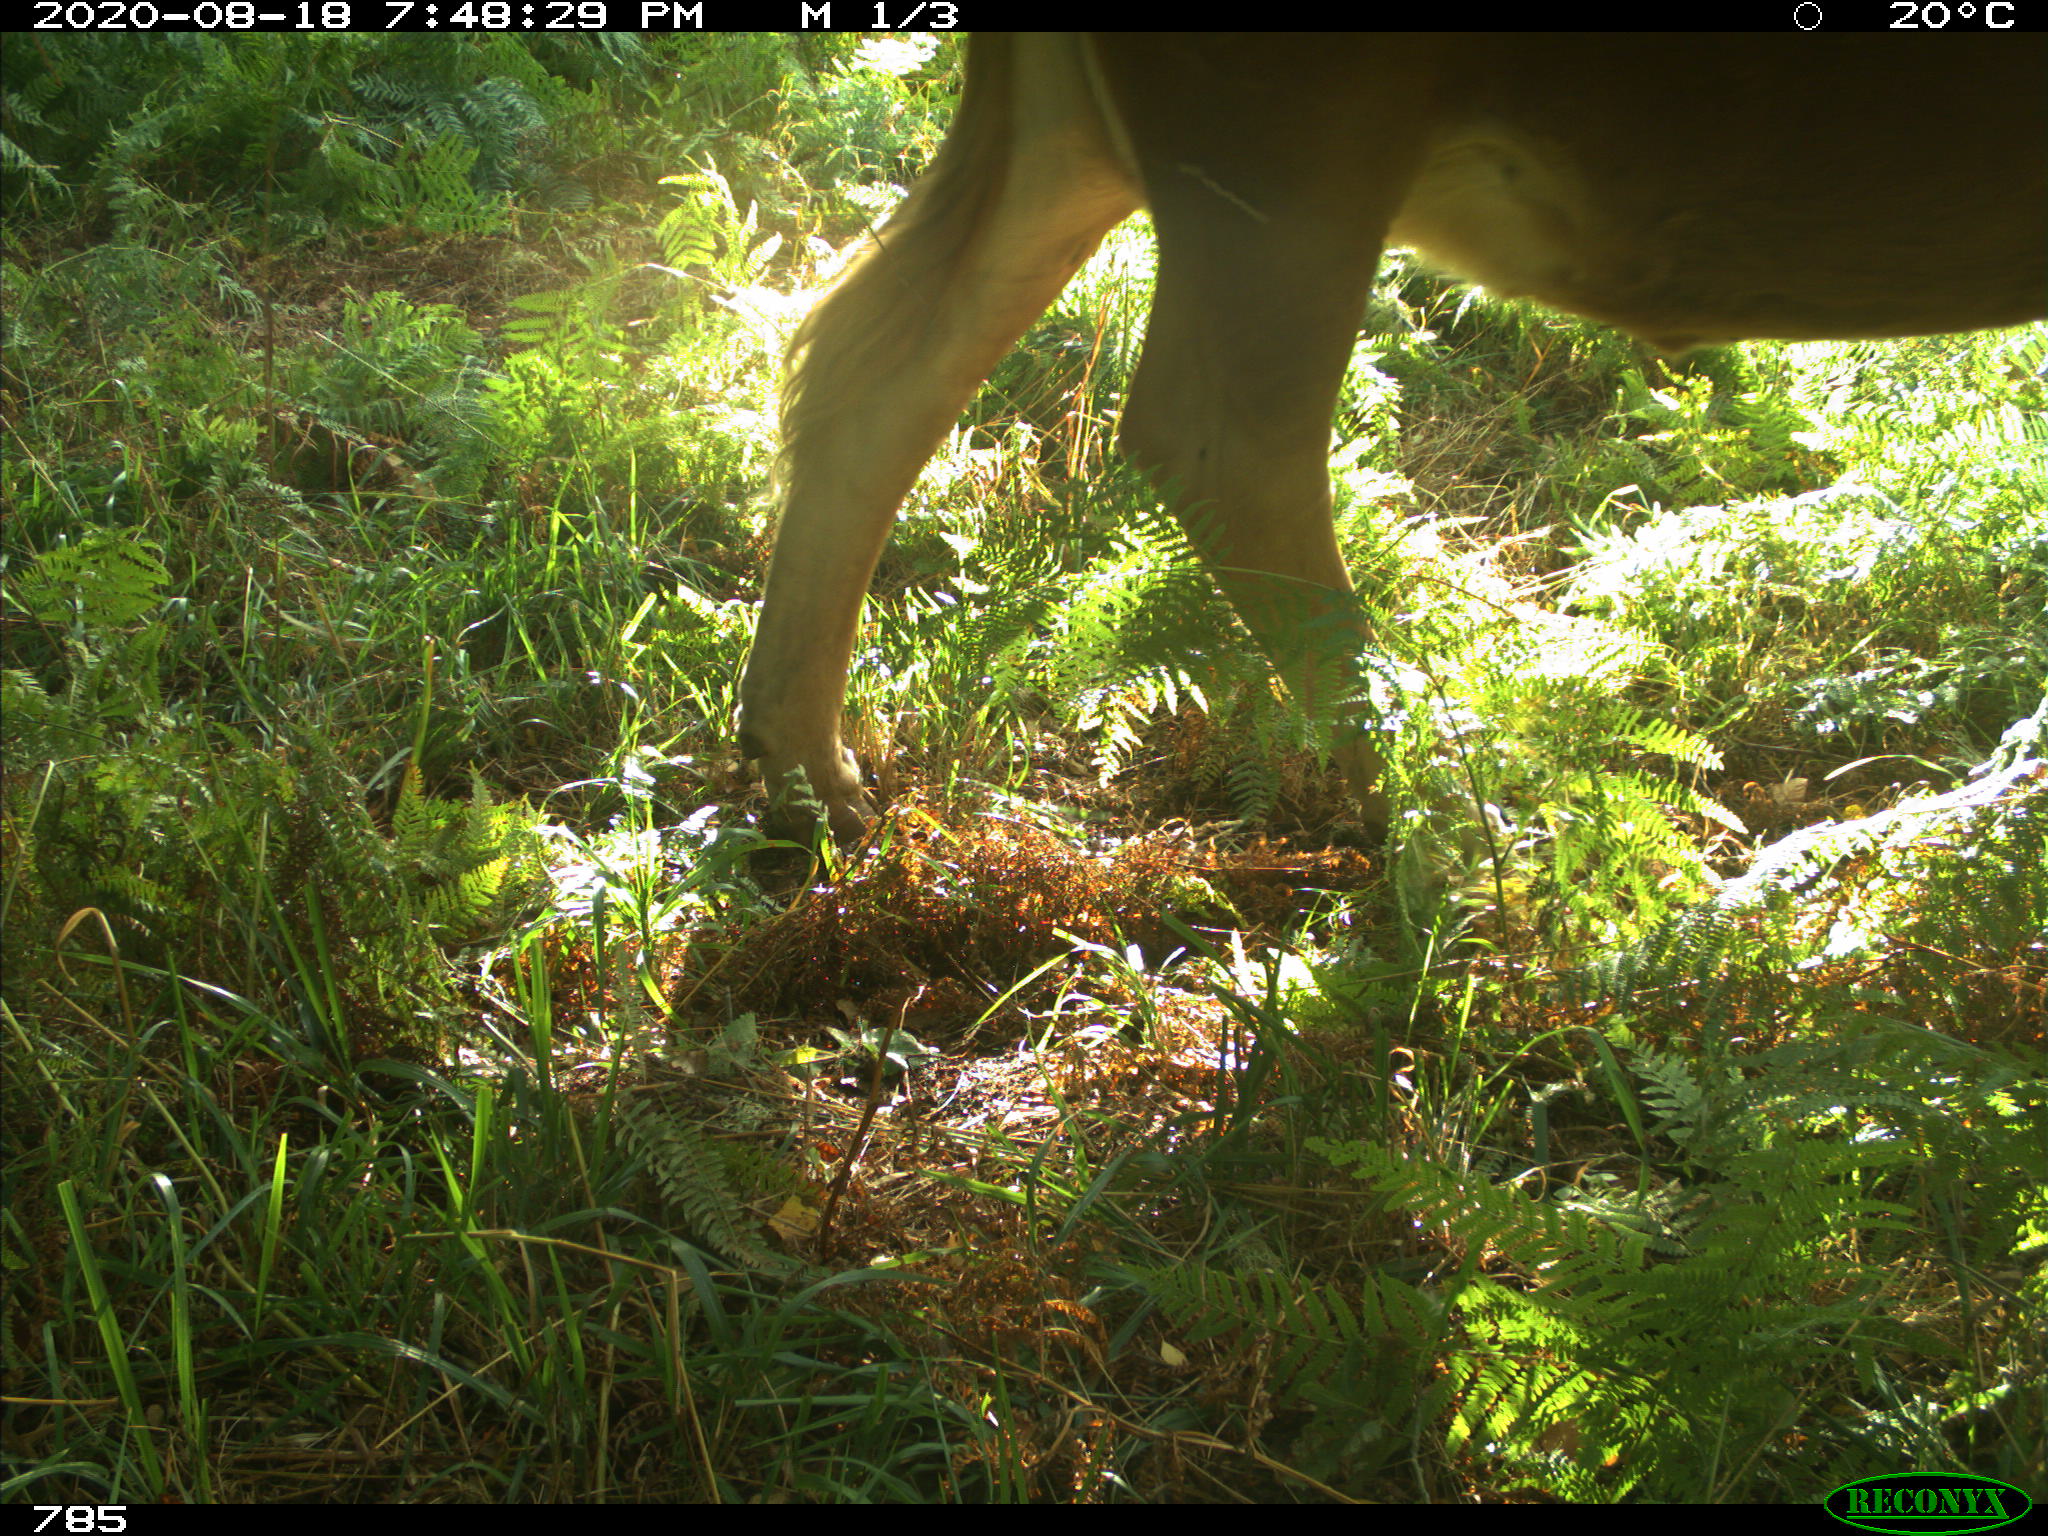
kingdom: Animalia
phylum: Chordata
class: Mammalia
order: Artiodactyla
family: Bovidae
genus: Bos
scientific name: Bos taurus
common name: Domesticated cattle
